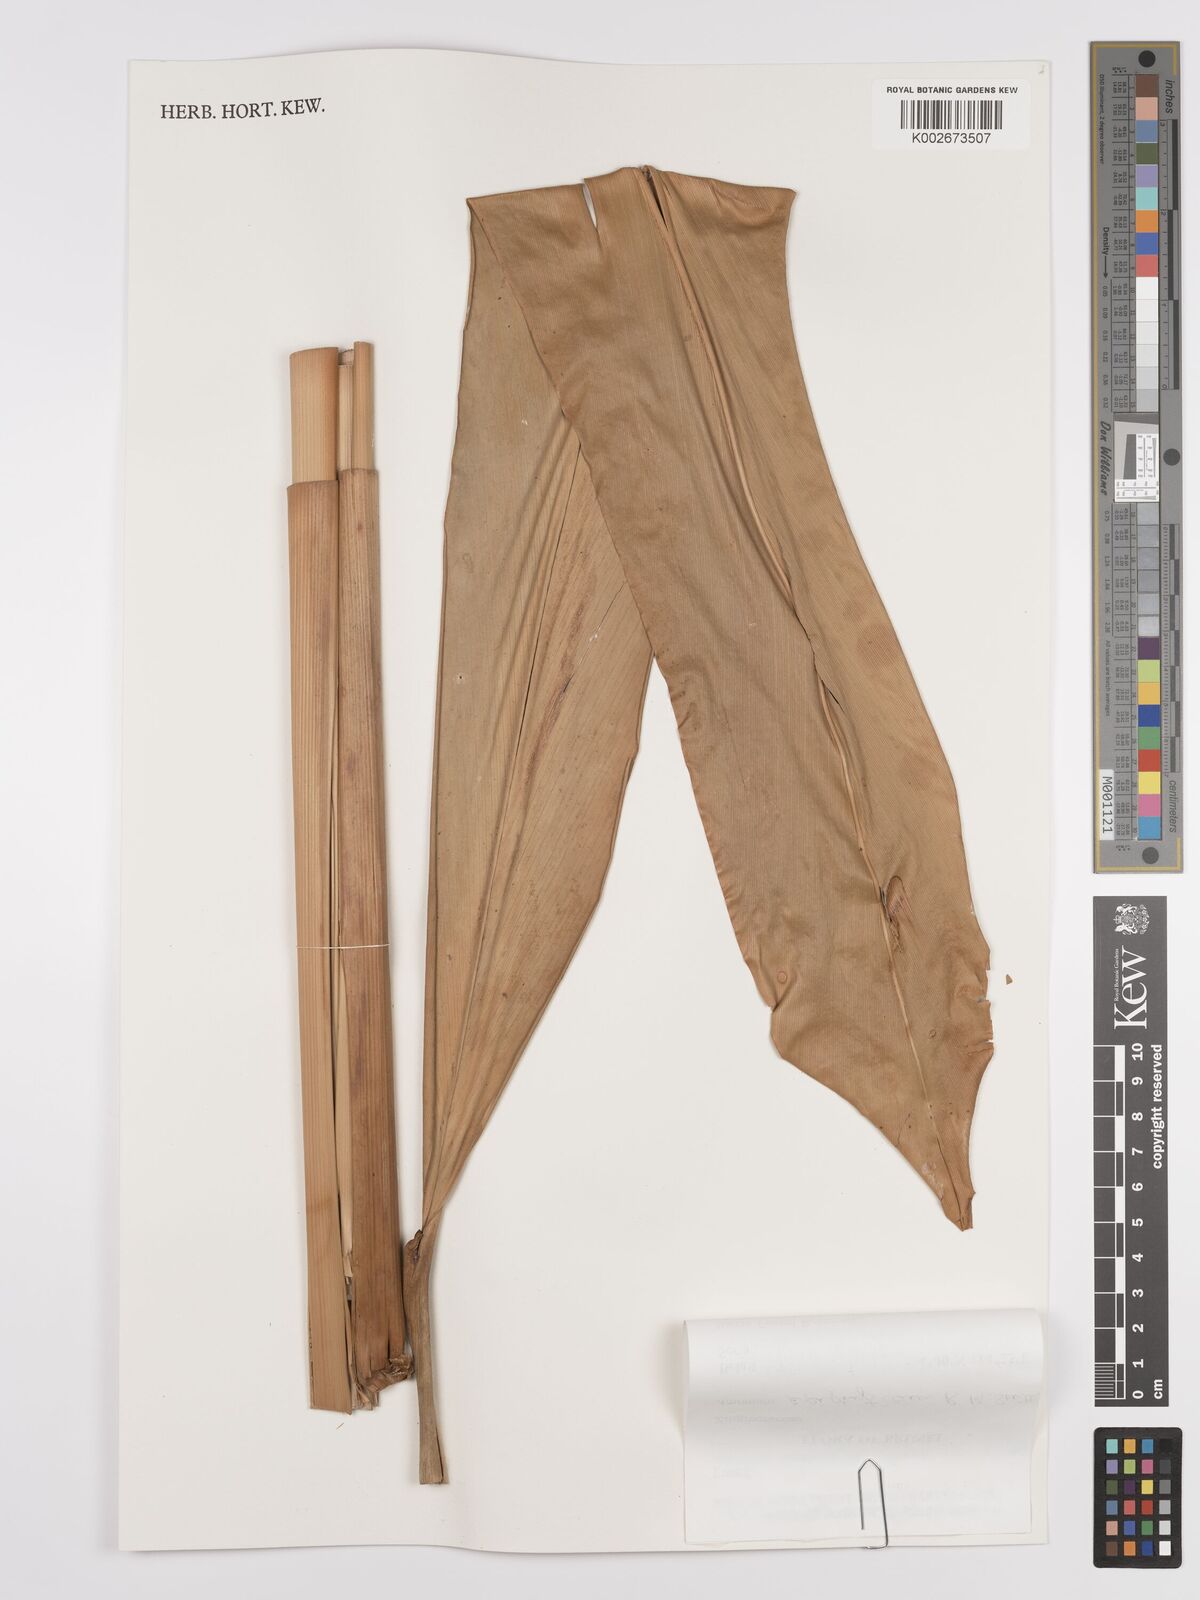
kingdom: Plantae
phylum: Tracheophyta
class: Liliopsida
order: Zingiberales
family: Zingiberaceae
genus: Conamomum
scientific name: Conamomum xanthophlebium
